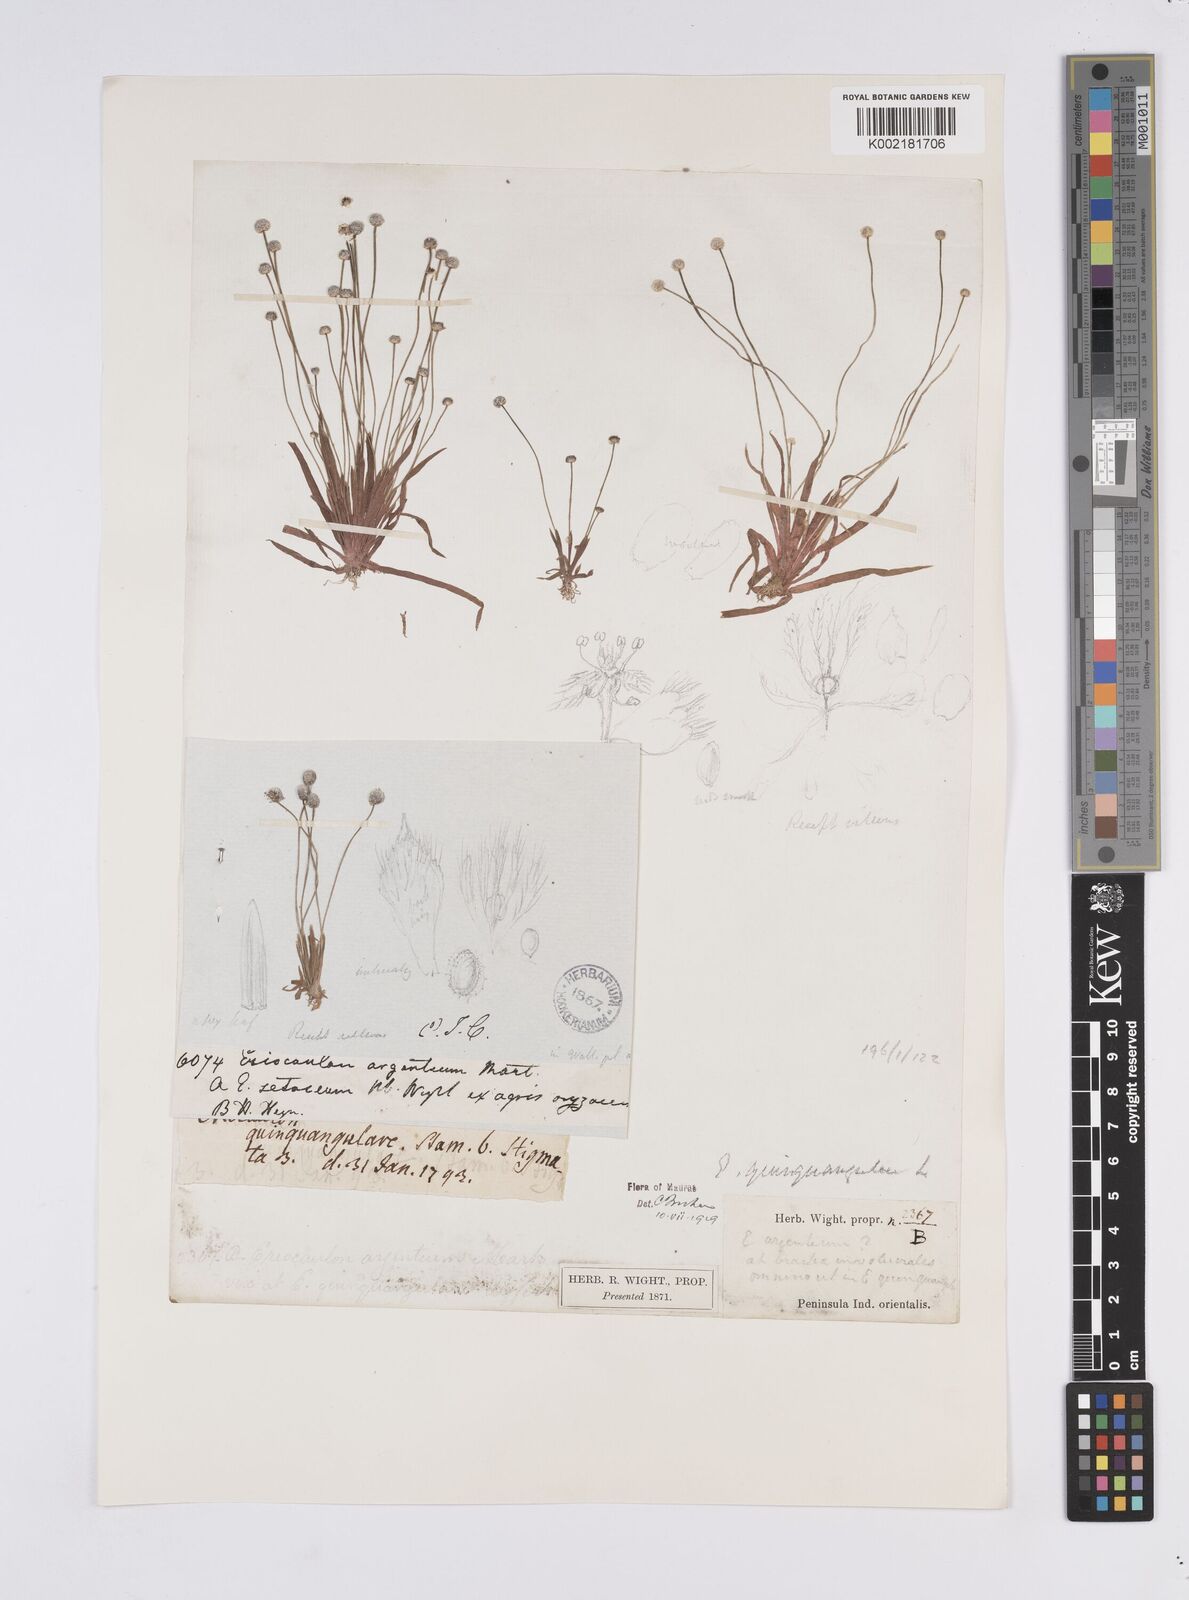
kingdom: Plantae
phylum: Tracheophyta
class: Liliopsida
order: Poales
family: Eriocaulaceae
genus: Eriocaulon
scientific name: Eriocaulon quinquangulare
